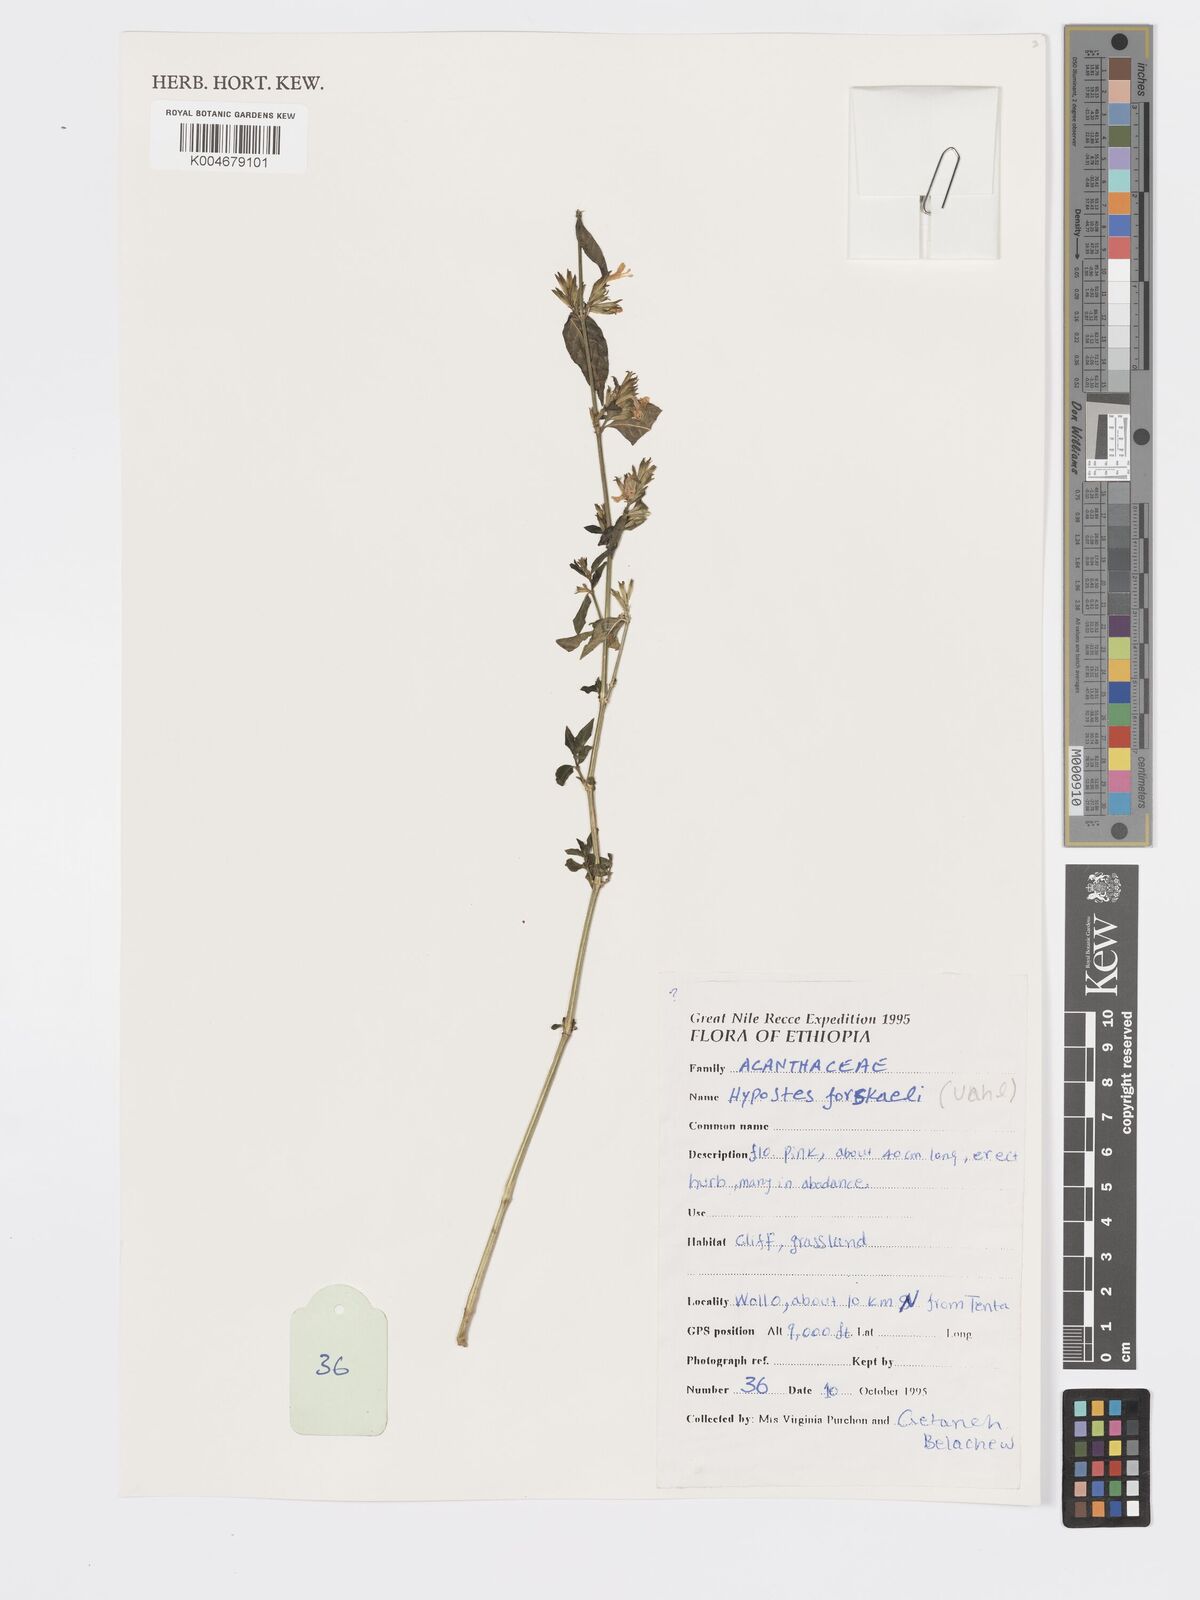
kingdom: Plantae
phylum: Tracheophyta
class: Magnoliopsida
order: Lamiales
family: Acanthaceae
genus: Hypoestes
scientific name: Hypoestes forskaolii
